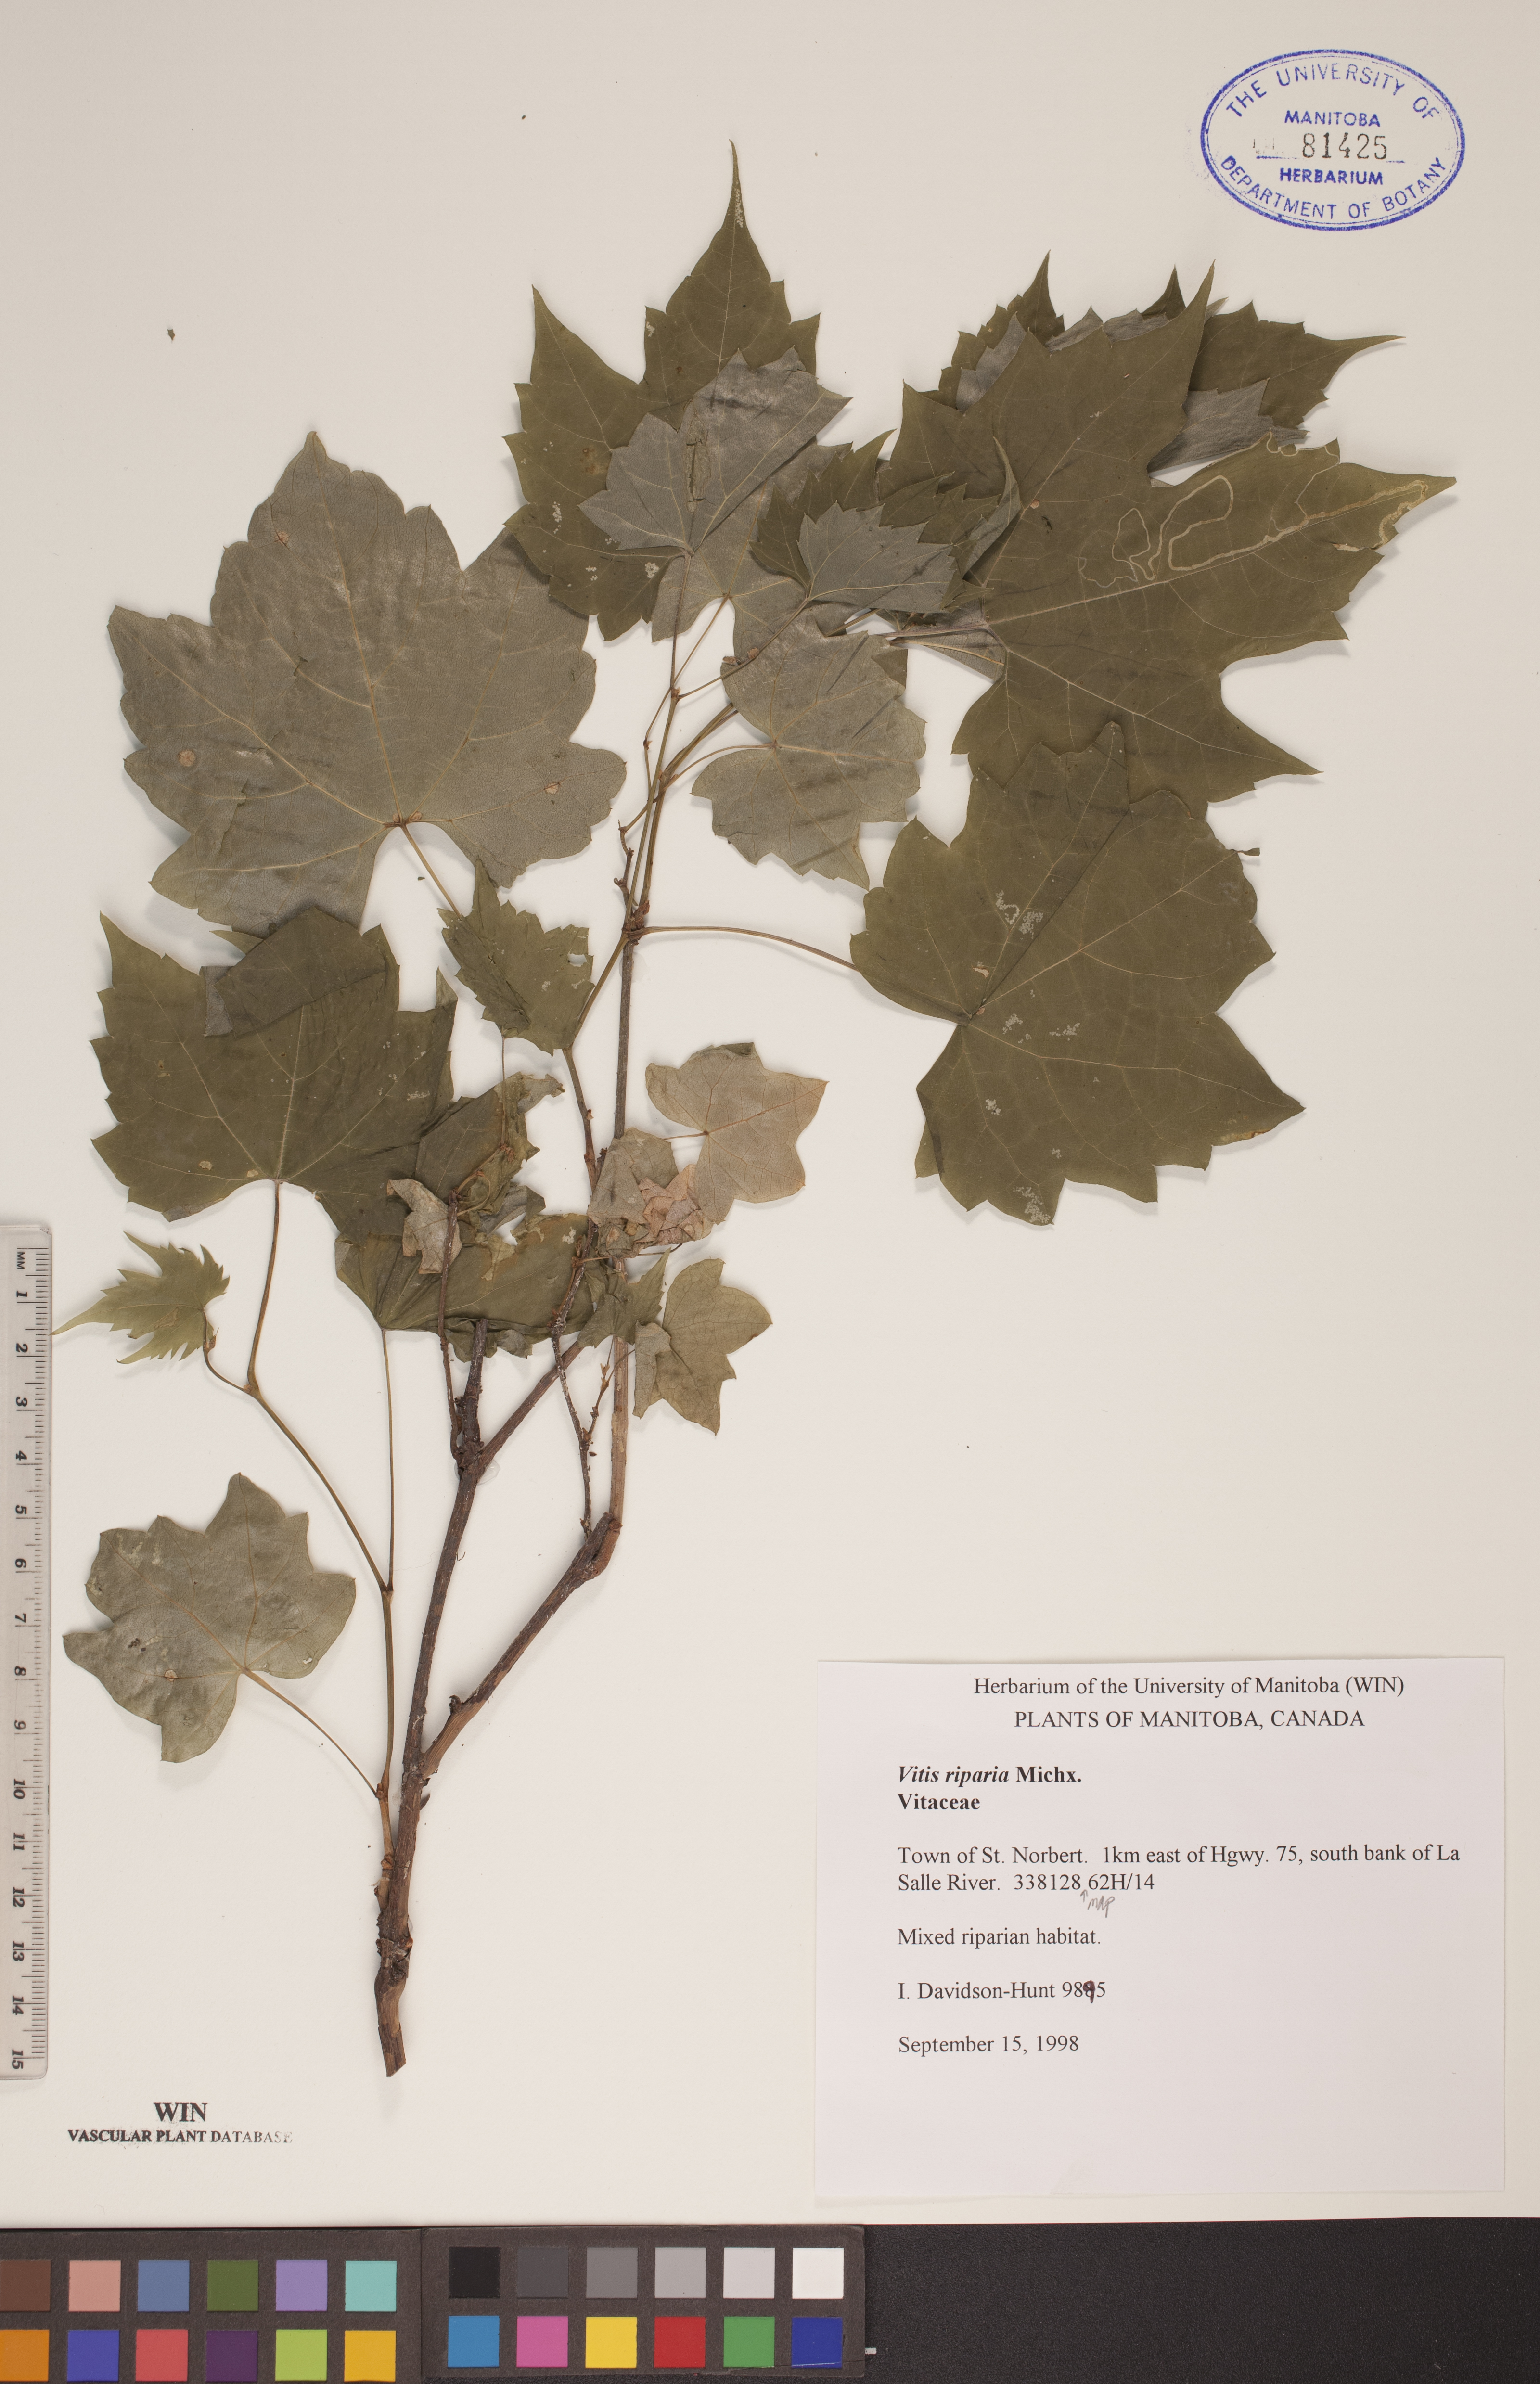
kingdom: Plantae
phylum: Tracheophyta
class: Magnoliopsida
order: Vitales
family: Vitaceae
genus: Vitis
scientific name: Vitis riparia
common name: Frost grape
